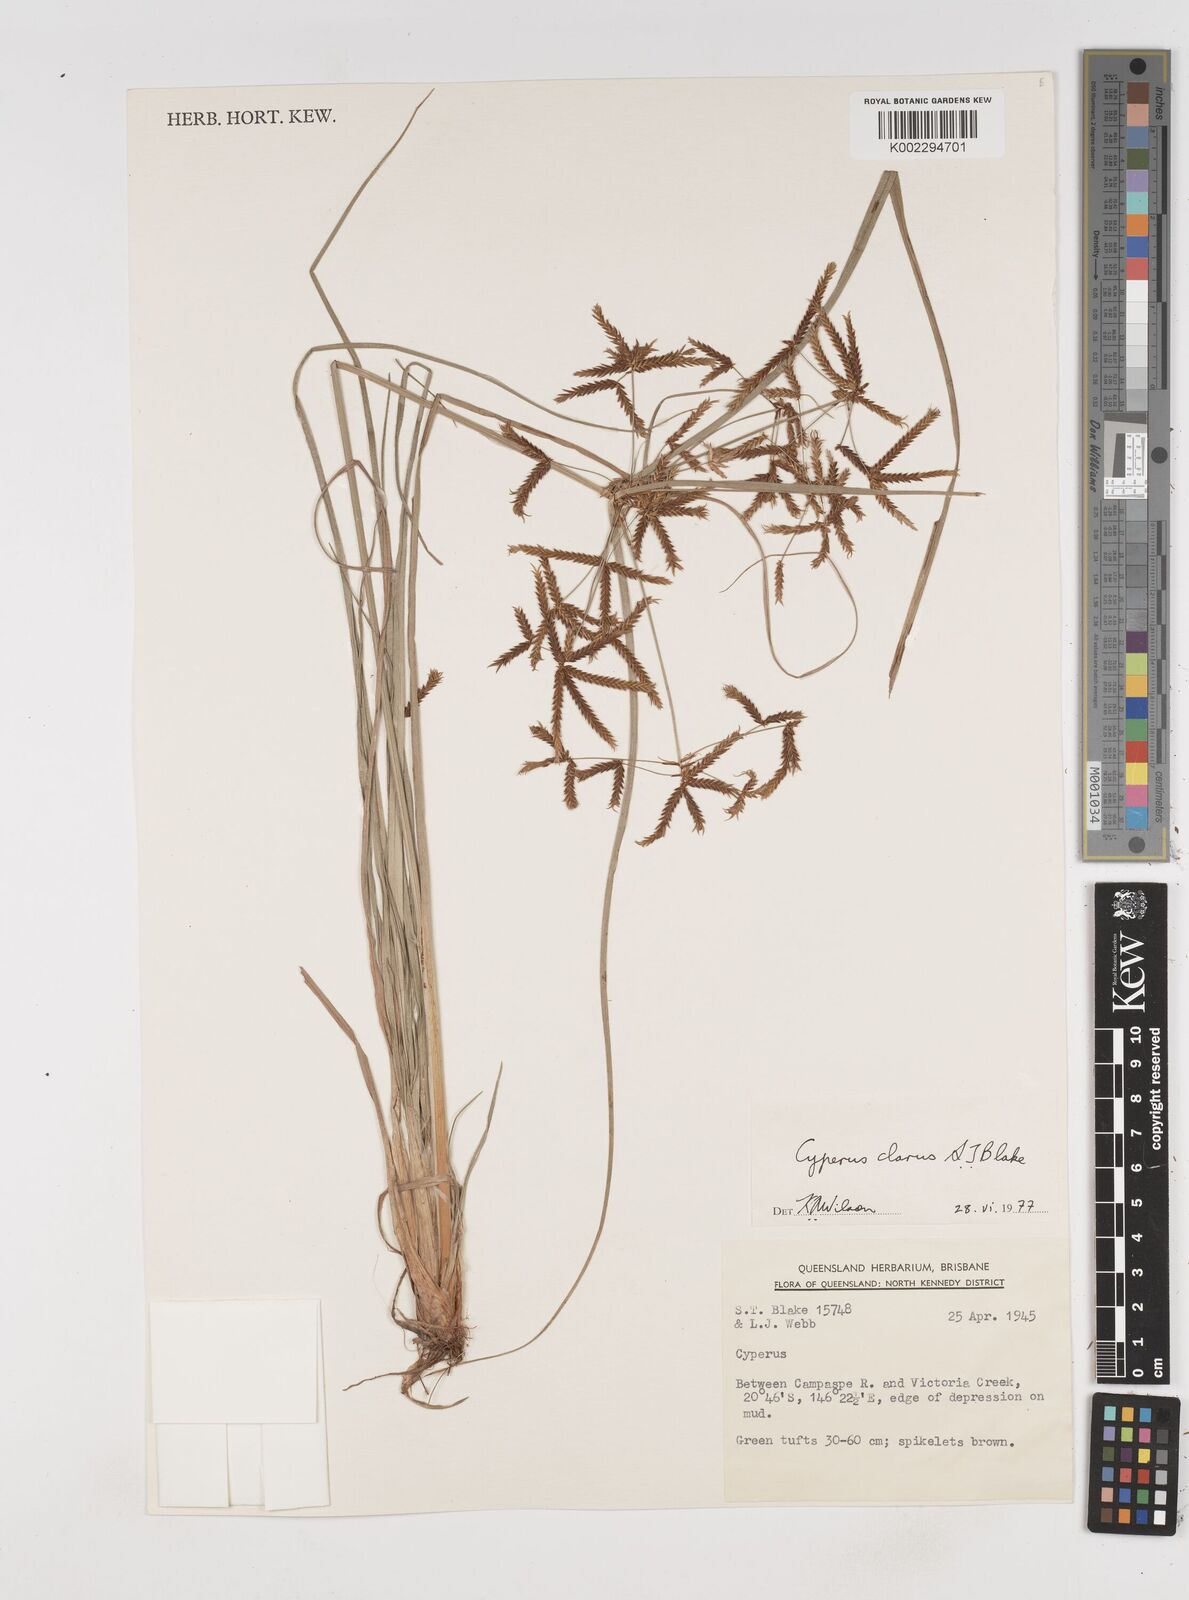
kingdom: Plantae
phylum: Tracheophyta
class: Liliopsida
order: Poales
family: Cyperaceae
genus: Cyperus
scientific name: Cyperus clarus
